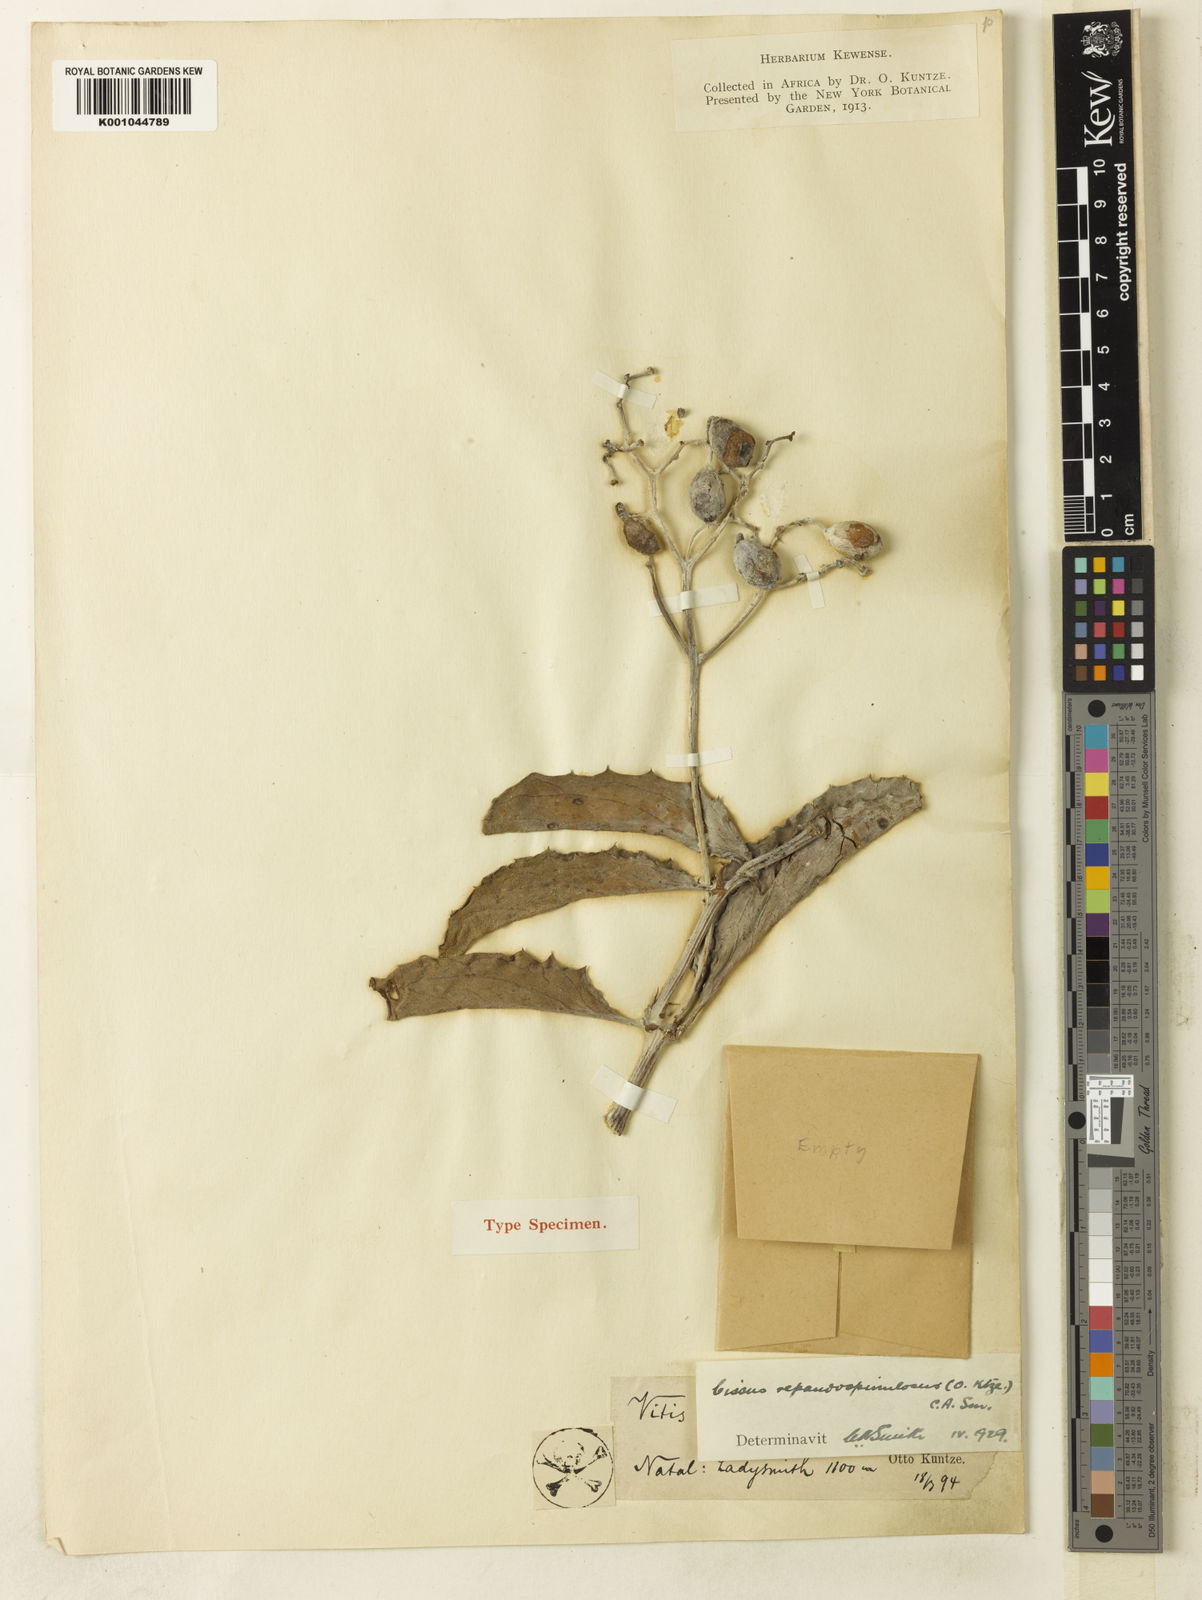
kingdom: Plantae
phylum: Tracheophyta
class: Magnoliopsida
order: Vitales
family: Vitaceae
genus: Cyphostemma
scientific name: Cyphostemma
